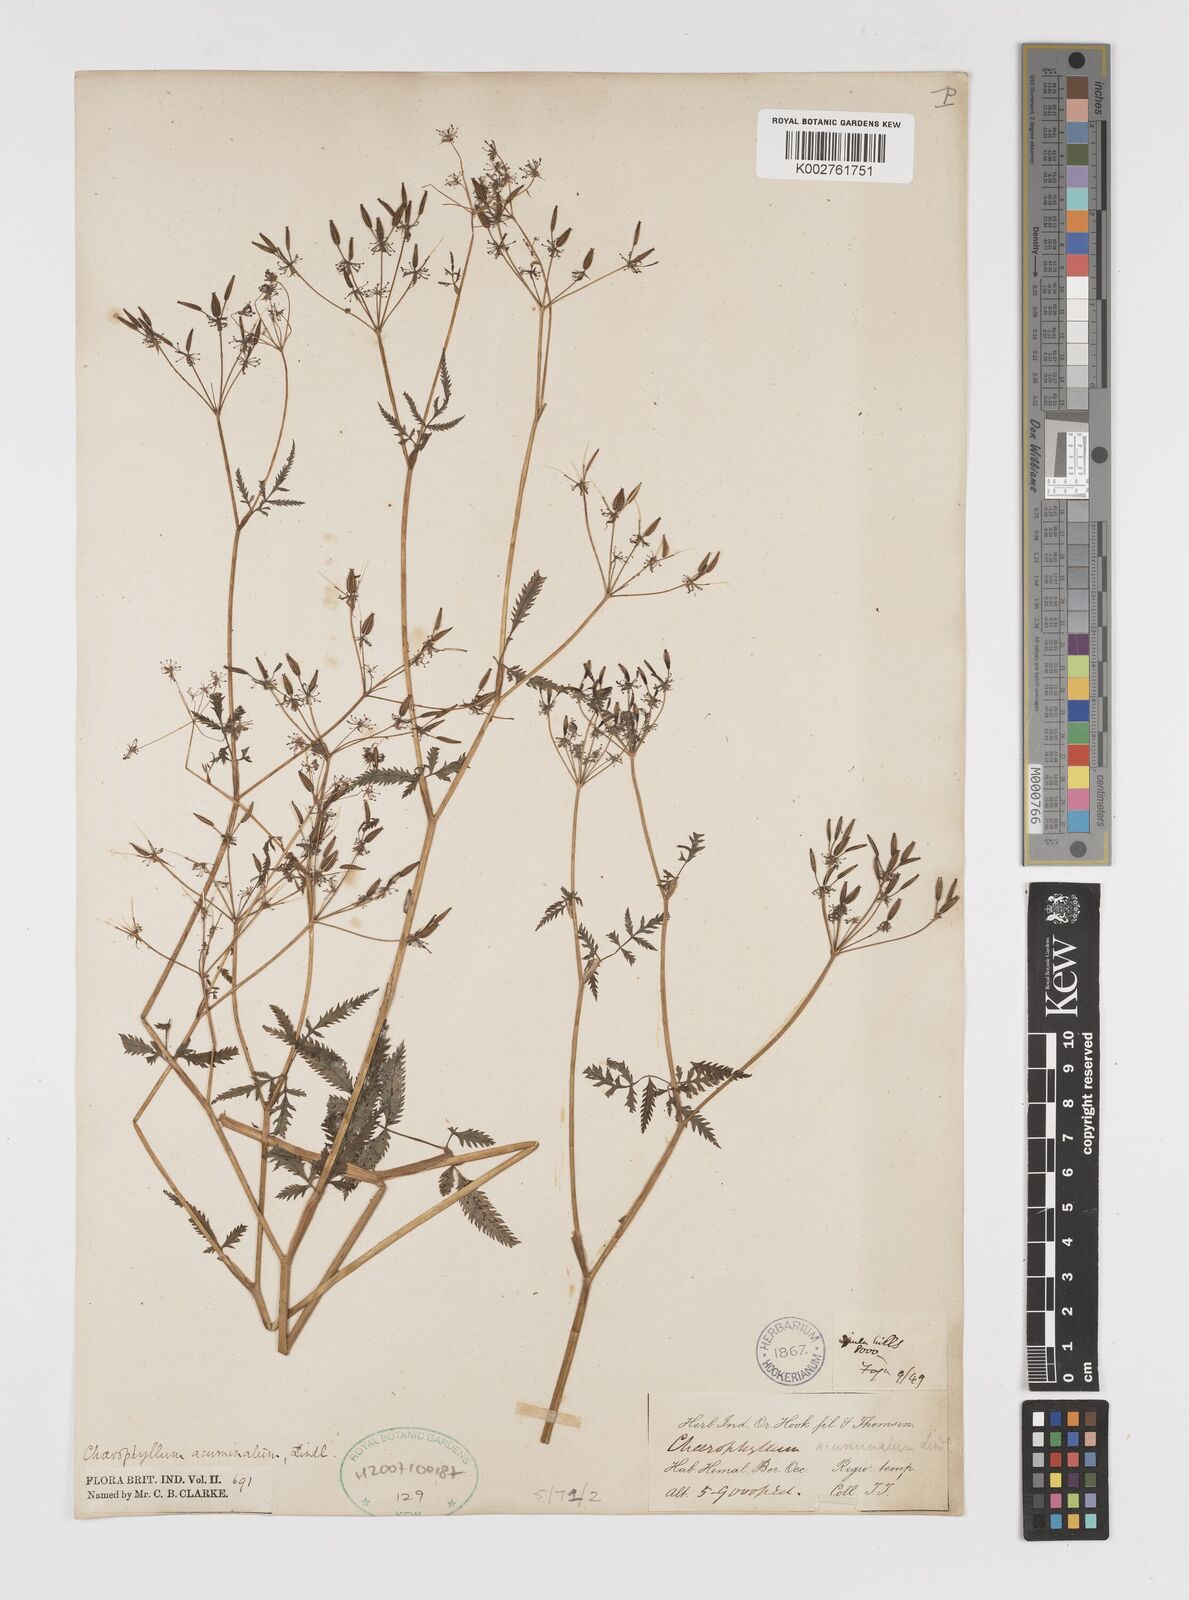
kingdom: Plantae
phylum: Tracheophyta
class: Magnoliopsida
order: Apiales
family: Apiaceae
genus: Chaerophyllum
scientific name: Chaerophyllum reflexum
